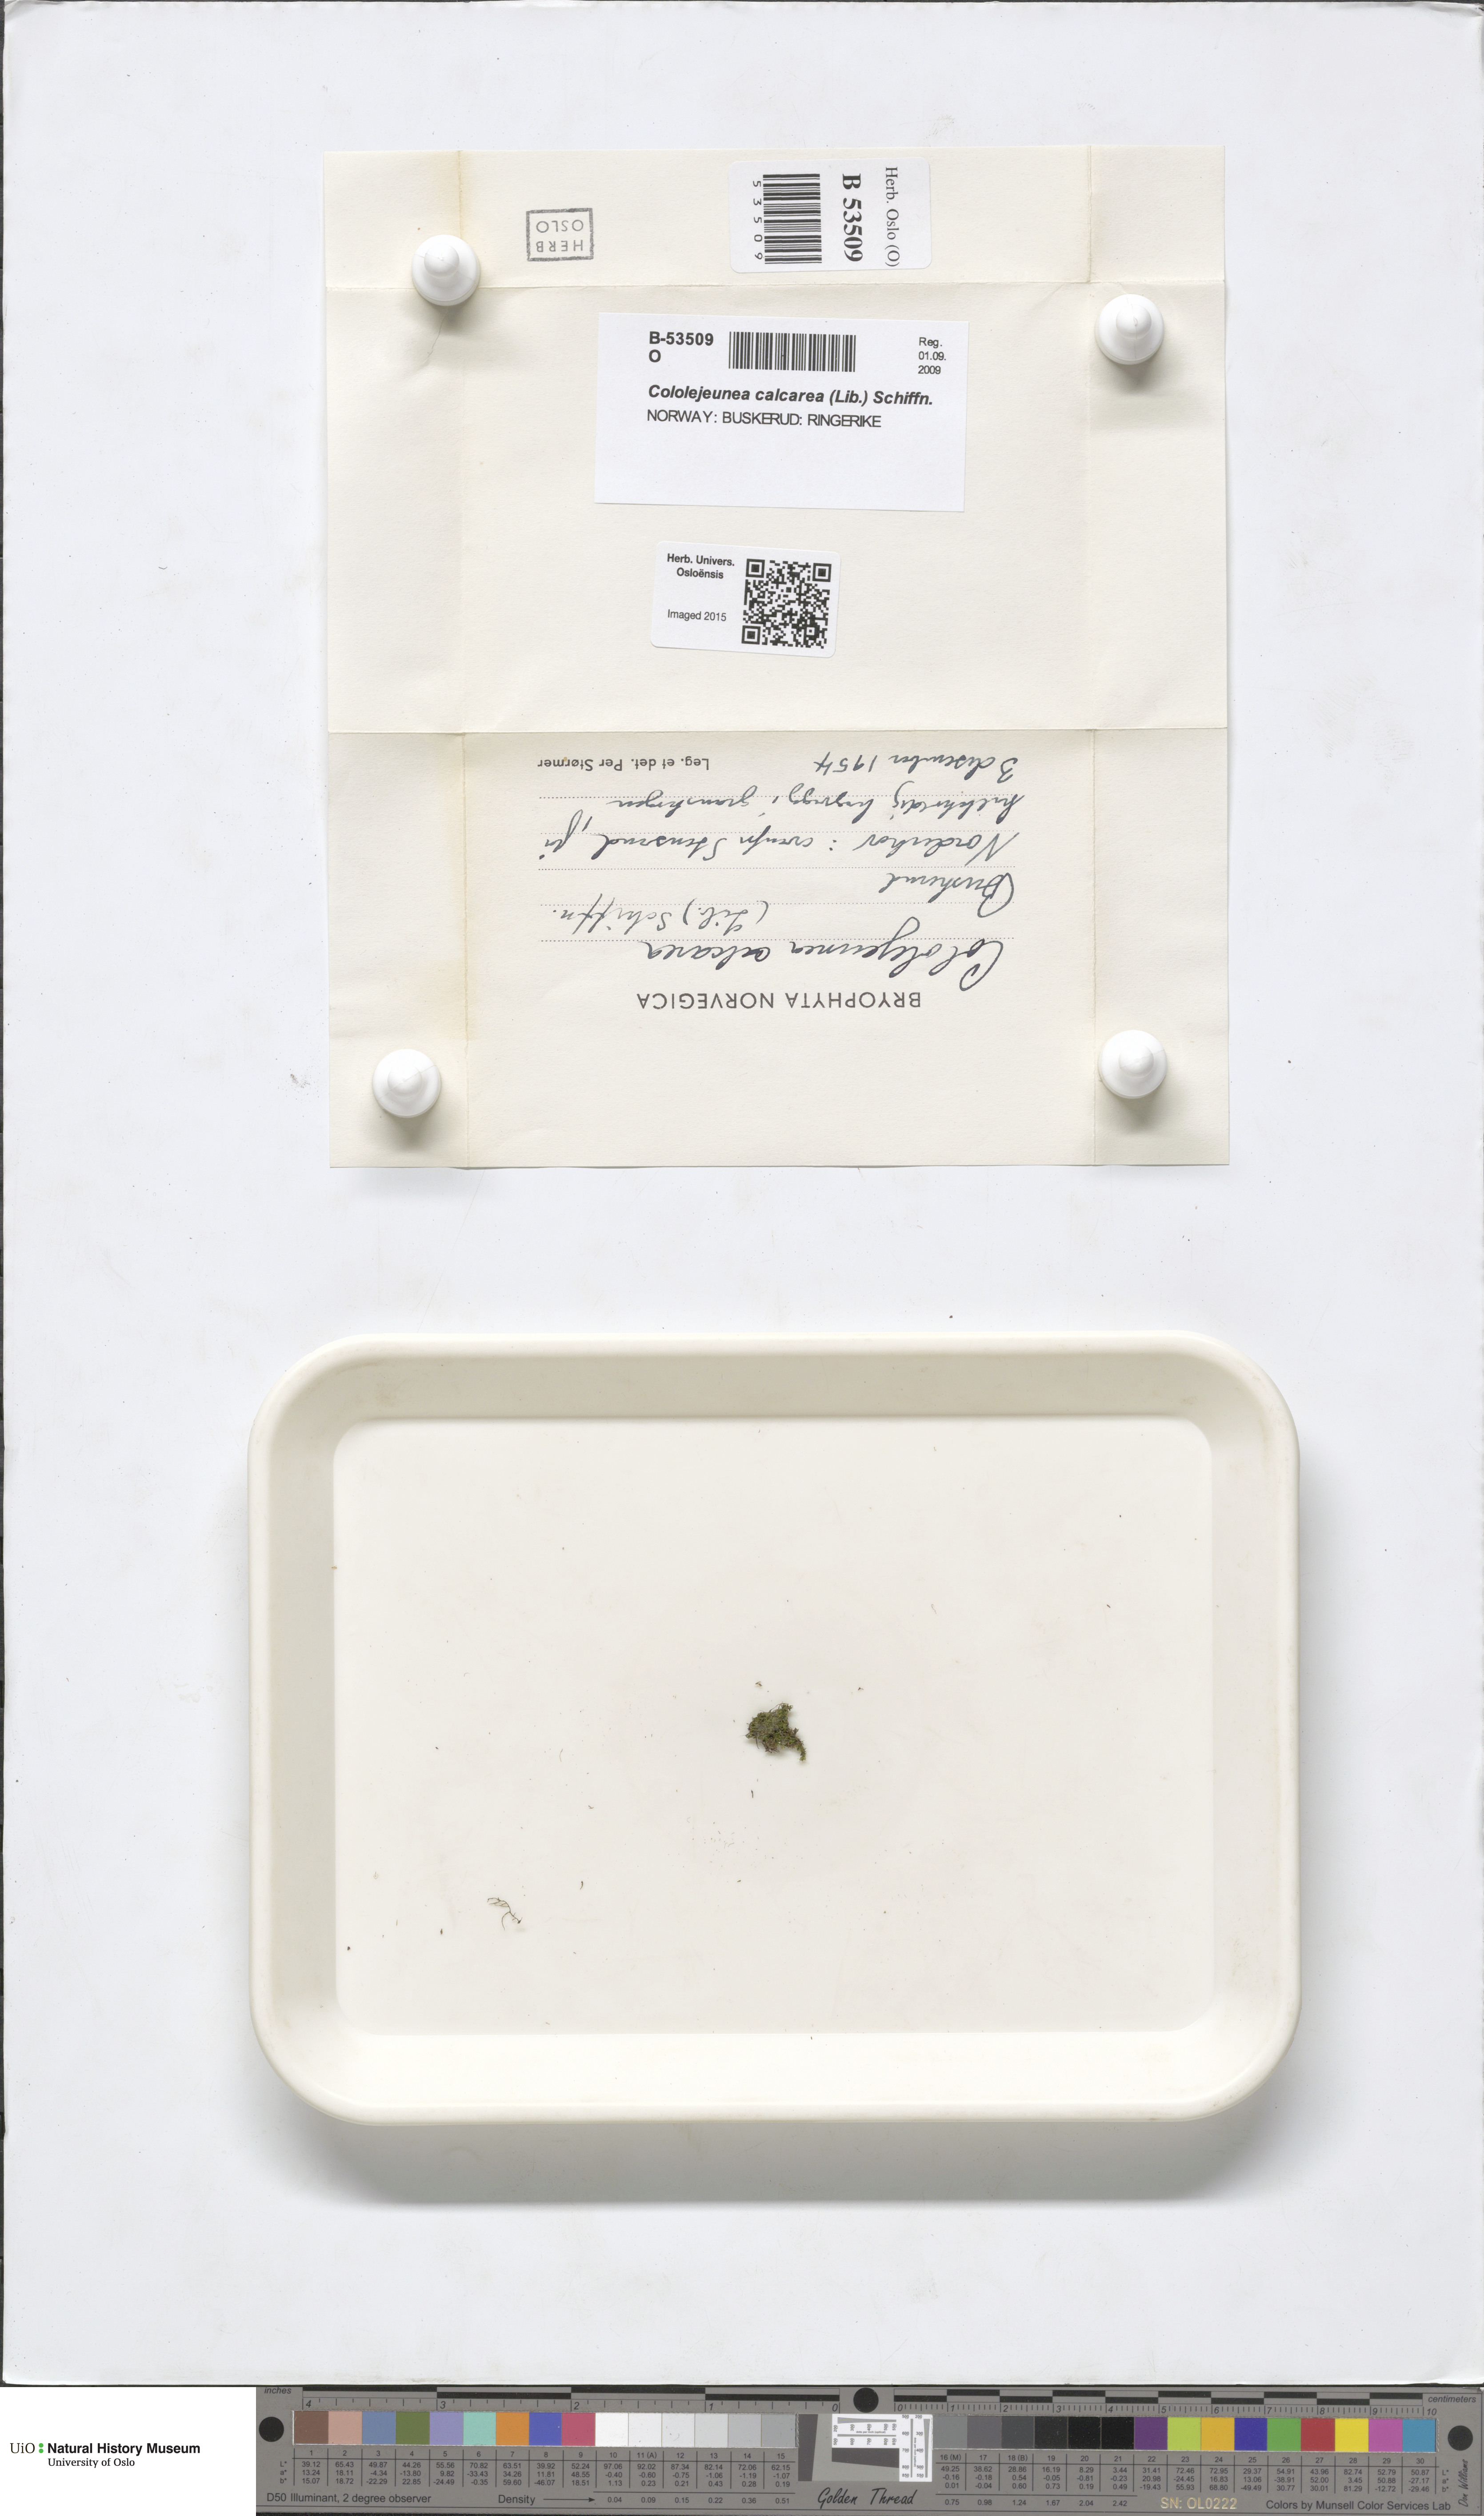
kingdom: Plantae
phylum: Marchantiophyta
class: Jungermanniopsida
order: Porellales
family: Lejeuneaceae
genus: Cololejeunea
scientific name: Cololejeunea calcarea
